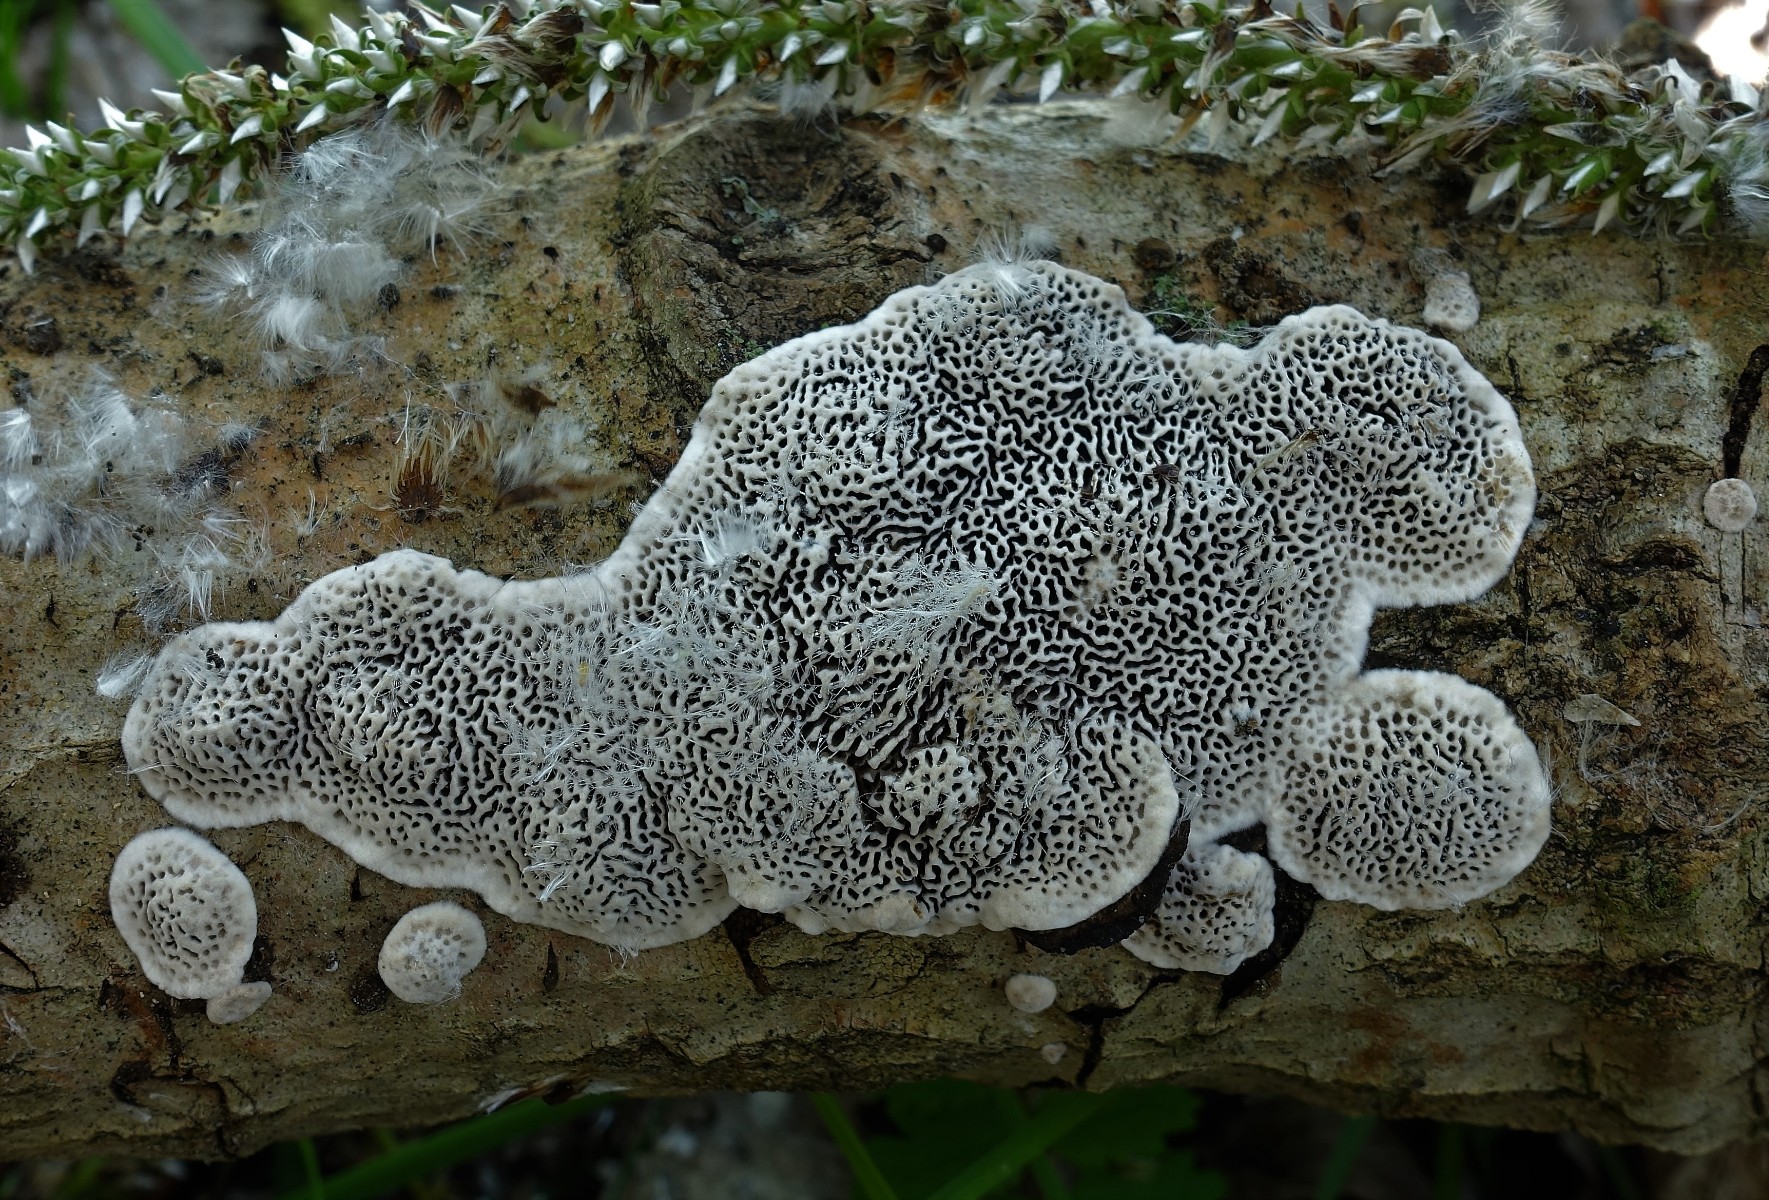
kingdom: Fungi
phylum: Basidiomycota
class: Agaricomycetes
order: Polyporales
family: Polyporaceae
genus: Podofomes
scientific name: Podofomes mollis
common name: blød begporesvamp
